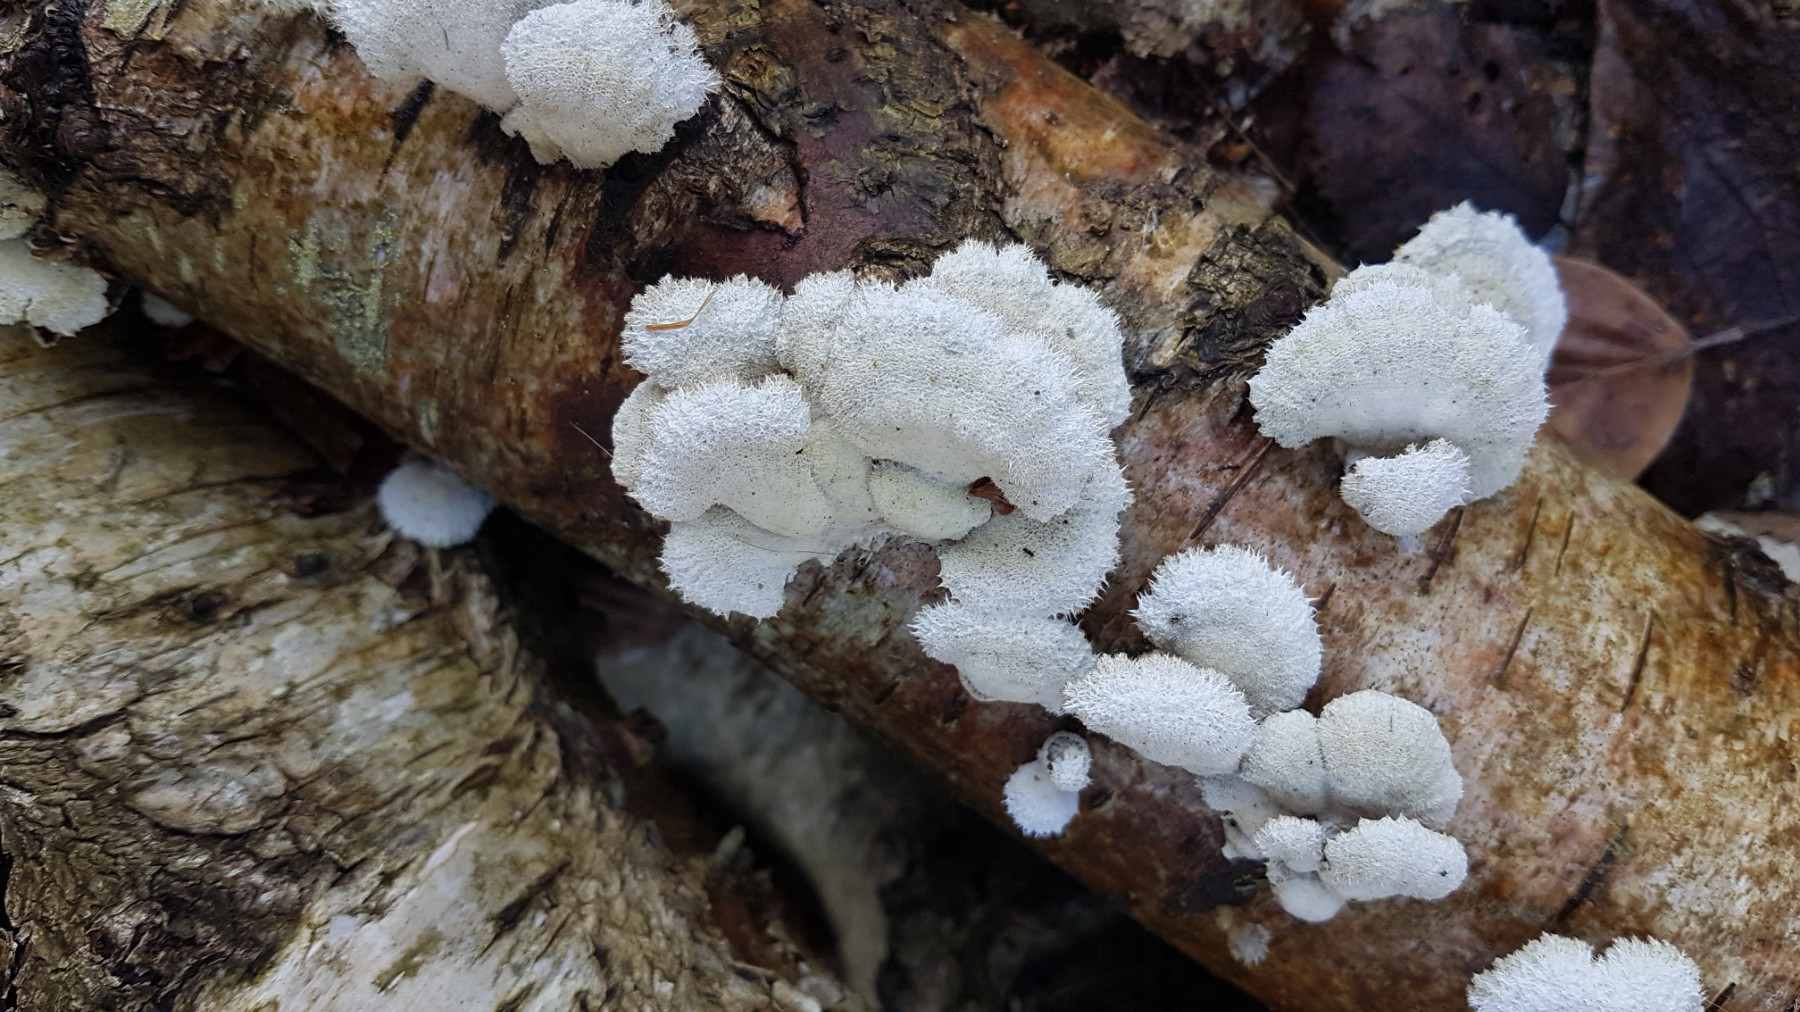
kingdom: Fungi
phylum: Basidiomycota
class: Agaricomycetes
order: Agaricales
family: Schizophyllaceae
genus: Schizophyllum
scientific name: Schizophyllum commune
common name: kløvblad
